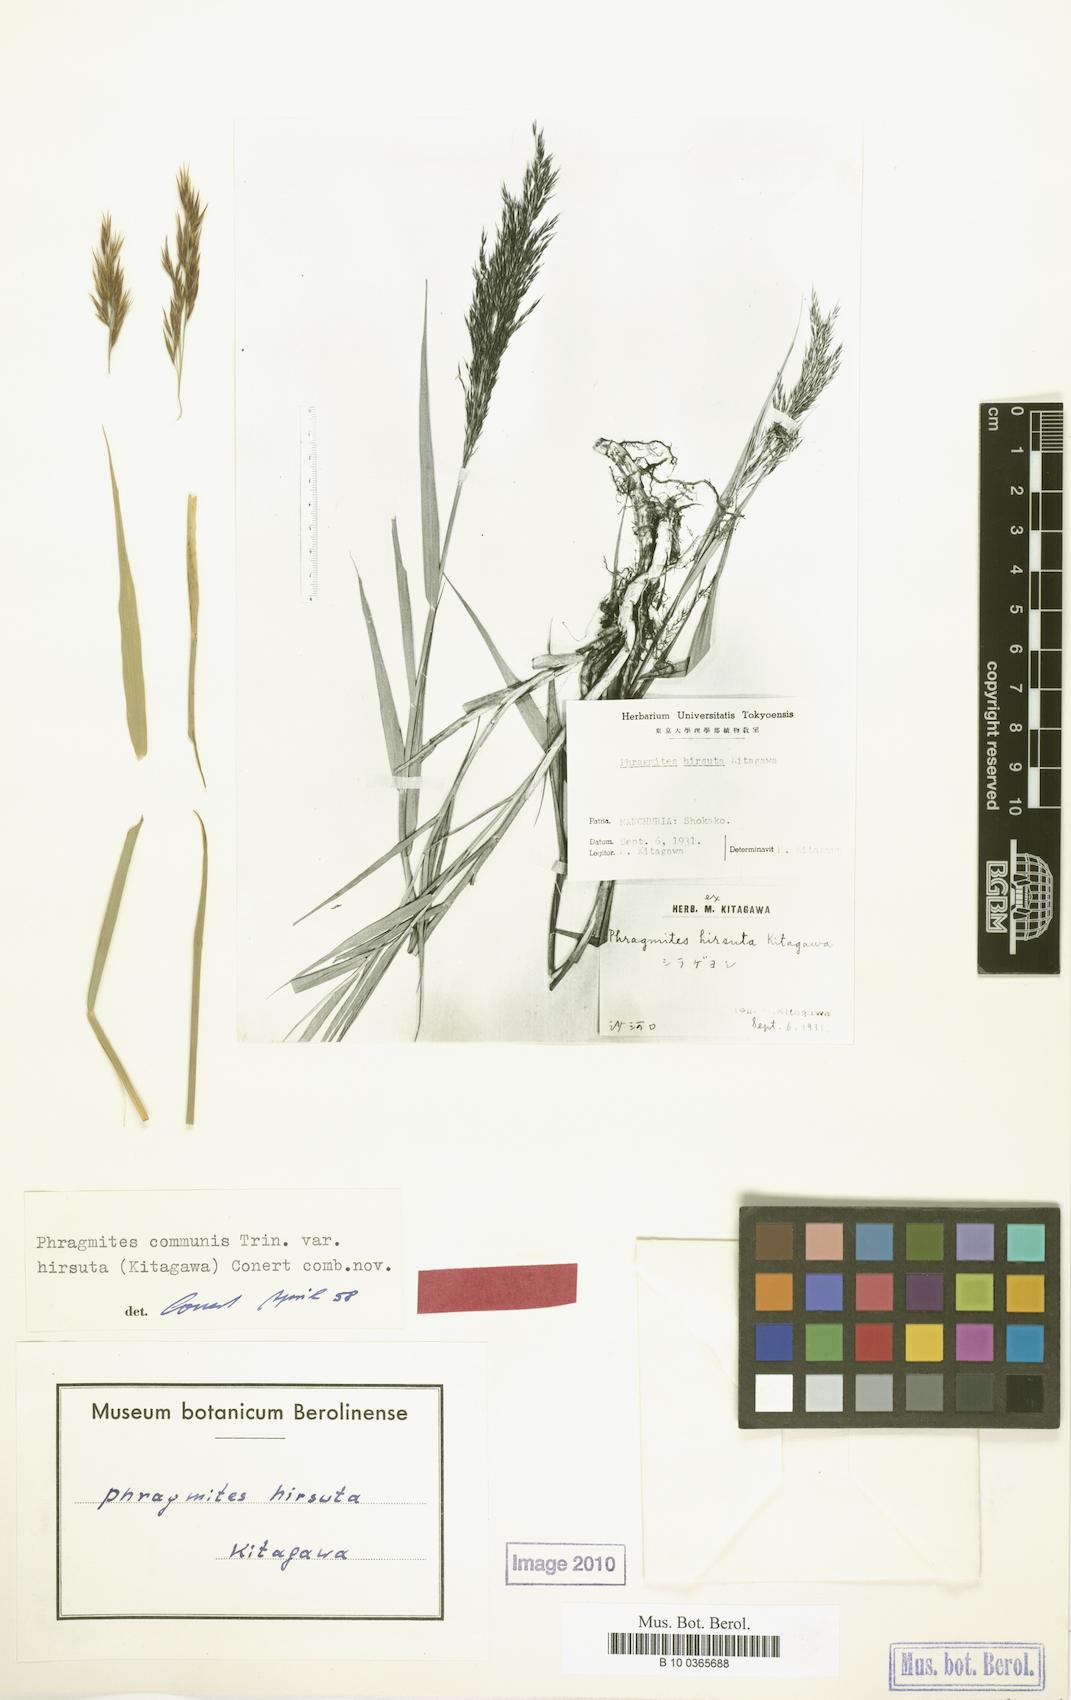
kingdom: Plantae
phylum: Tracheophyta
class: Liliopsida
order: Poales
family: Poaceae
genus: Phragmites
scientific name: Phragmites australis
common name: Common reed
